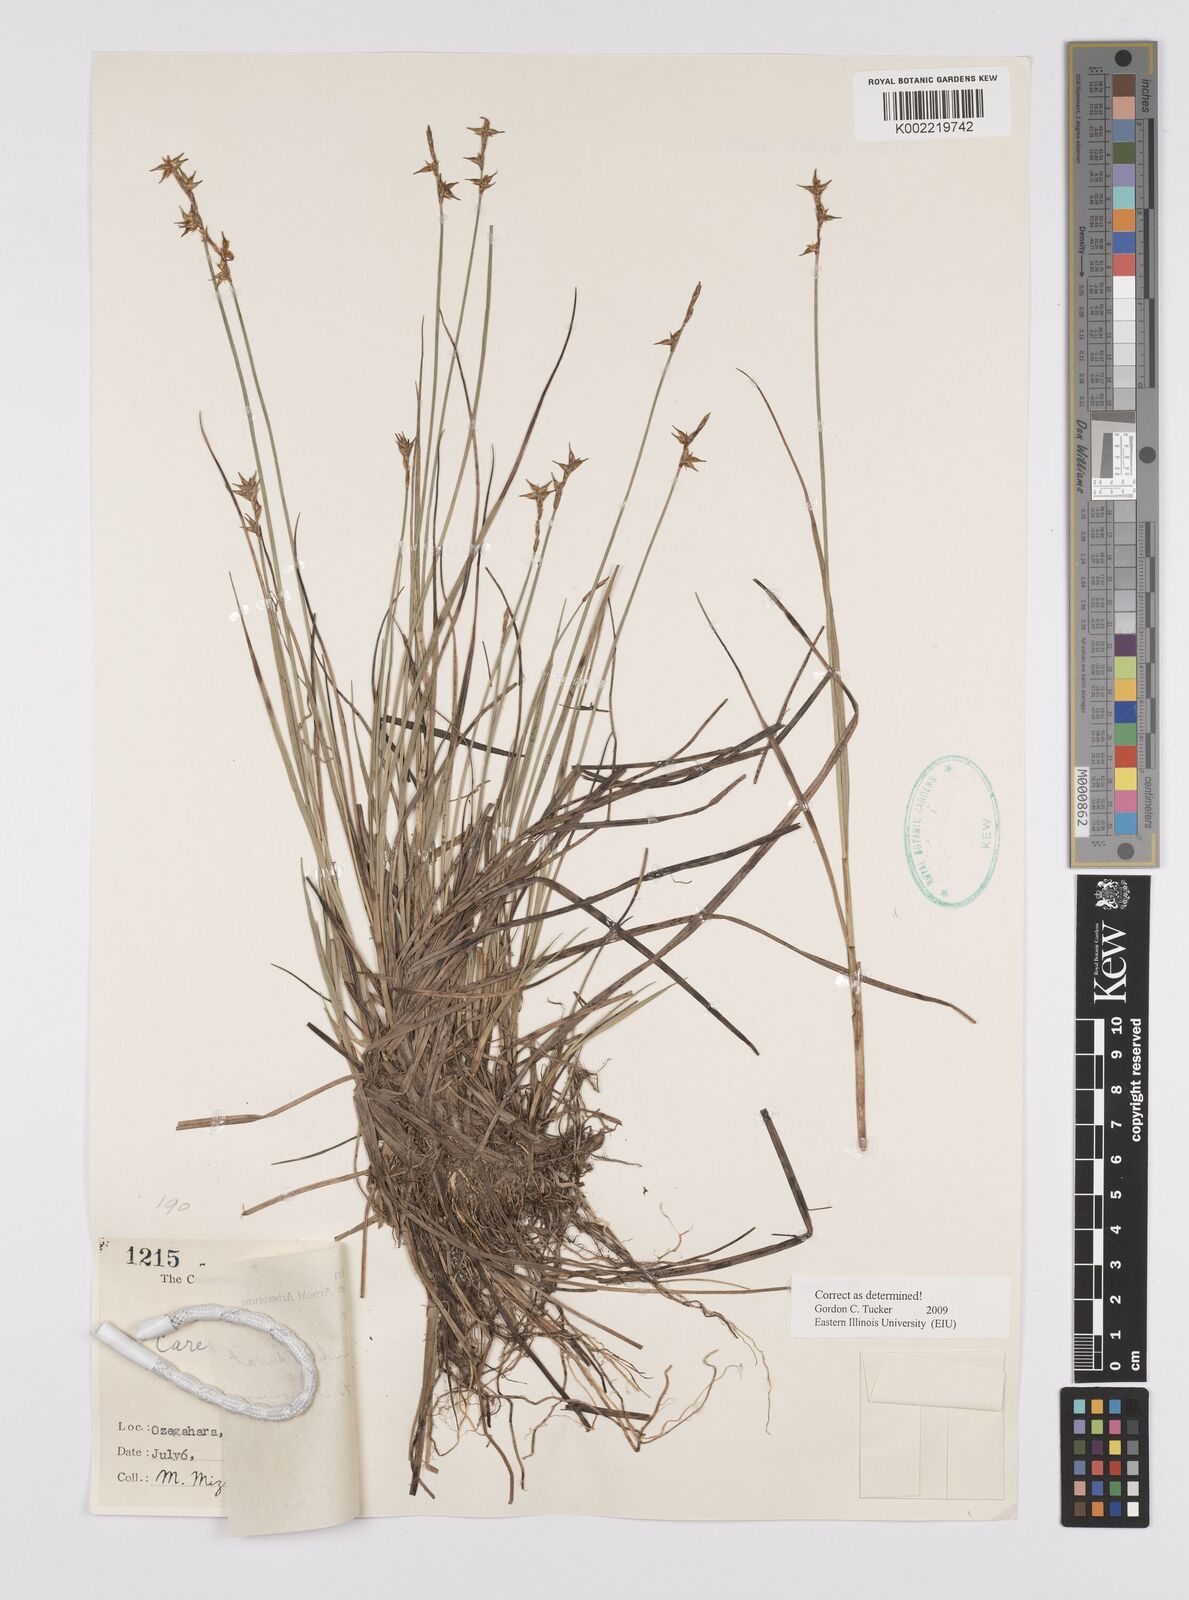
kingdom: Plantae
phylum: Tracheophyta
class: Liliopsida
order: Poales
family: Cyperaceae
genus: Carex
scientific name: Carex echinata
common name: Star sedge
